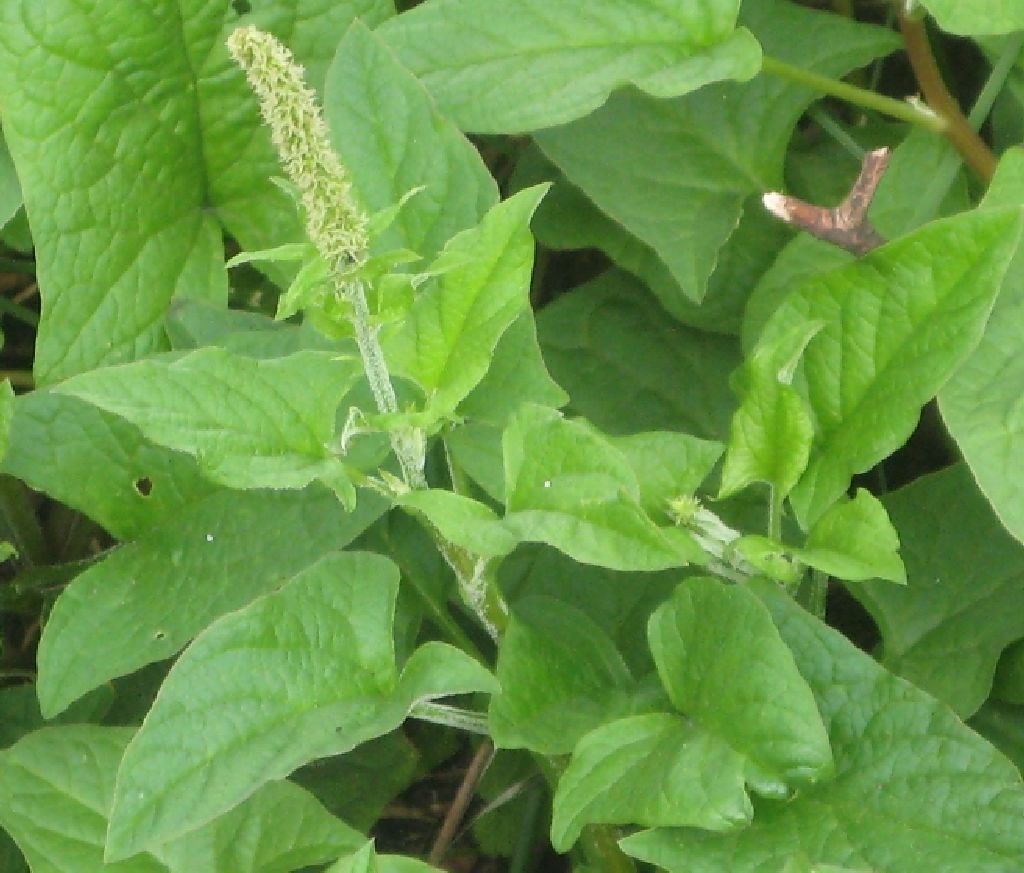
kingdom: Plantae
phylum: Tracheophyta
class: Magnoliopsida
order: Caryophyllales
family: Amaranthaceae
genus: Blitum
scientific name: Blitum bonus-henricus
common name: Stolthenriks-gåsefod
